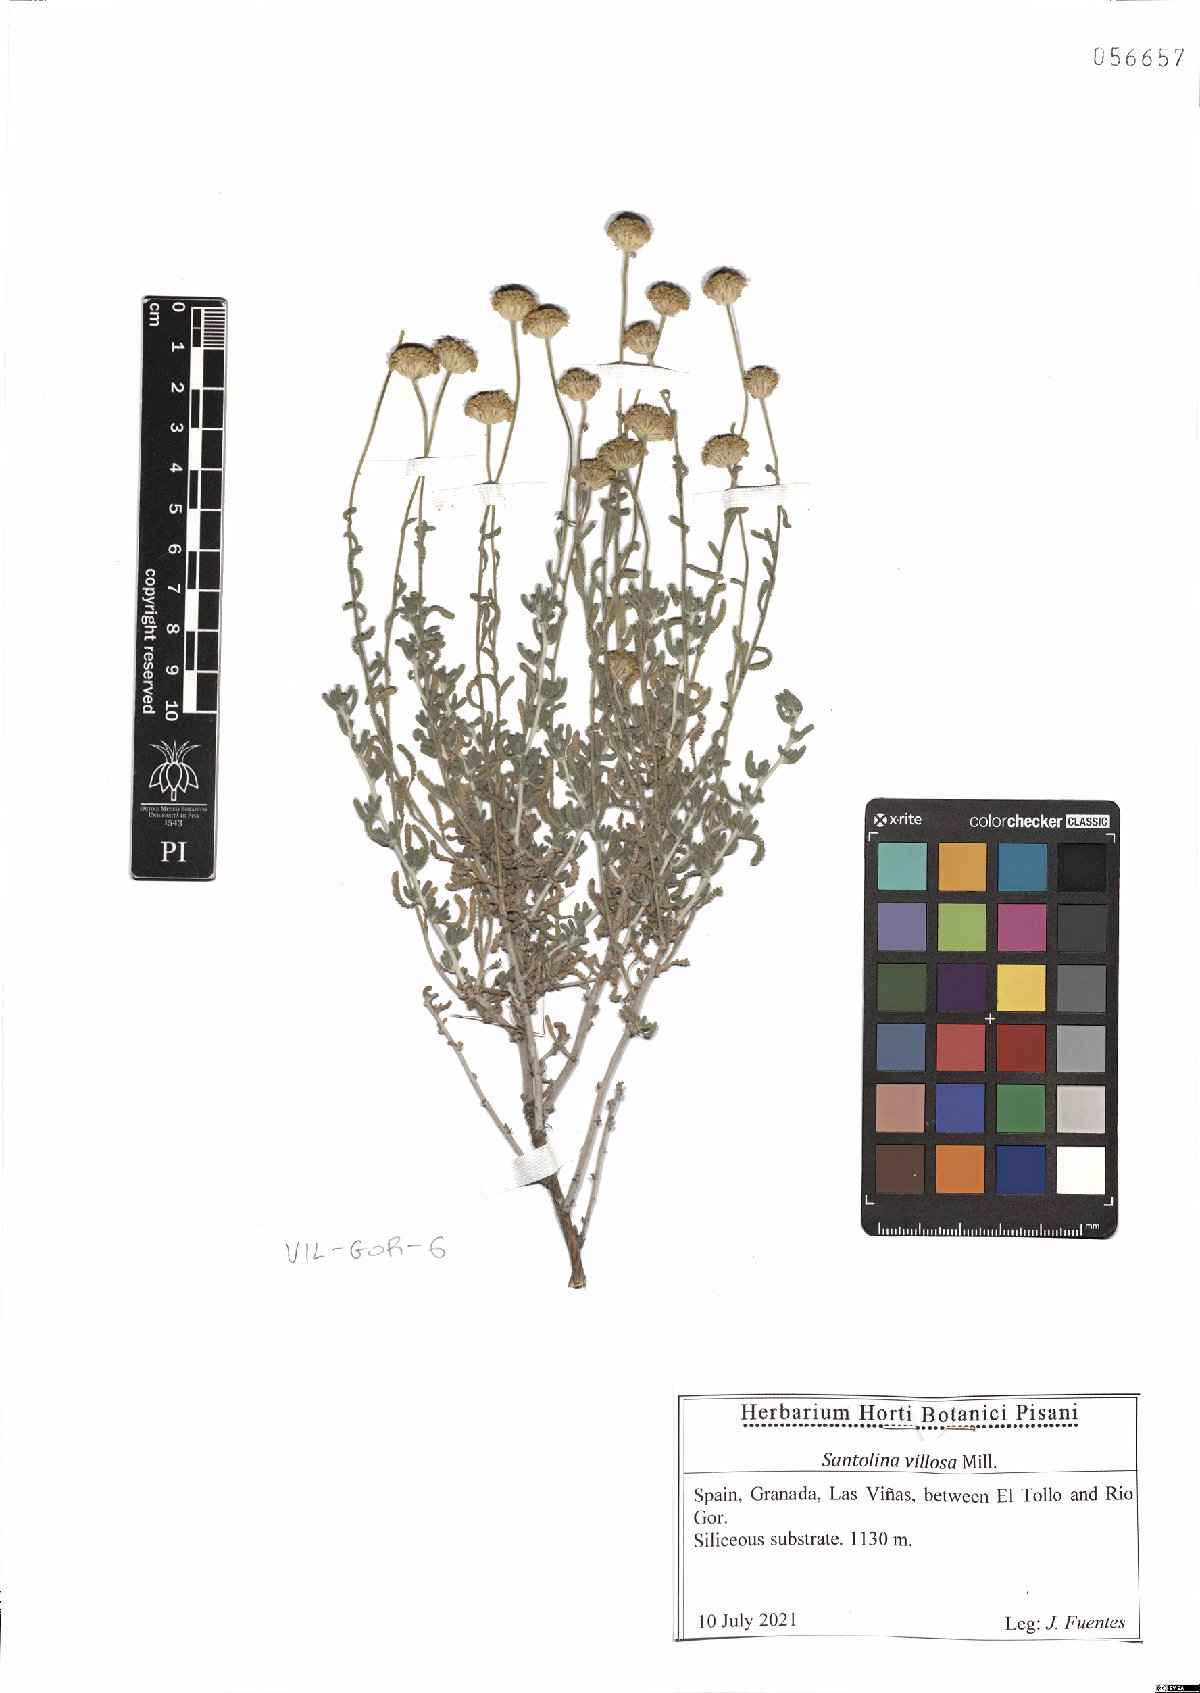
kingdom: Plantae
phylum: Tracheophyta
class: Magnoliopsida
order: Asterales
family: Asteraceae
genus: Santolina
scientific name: Santolina chamaecyparissus
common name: Lavender-cotton
